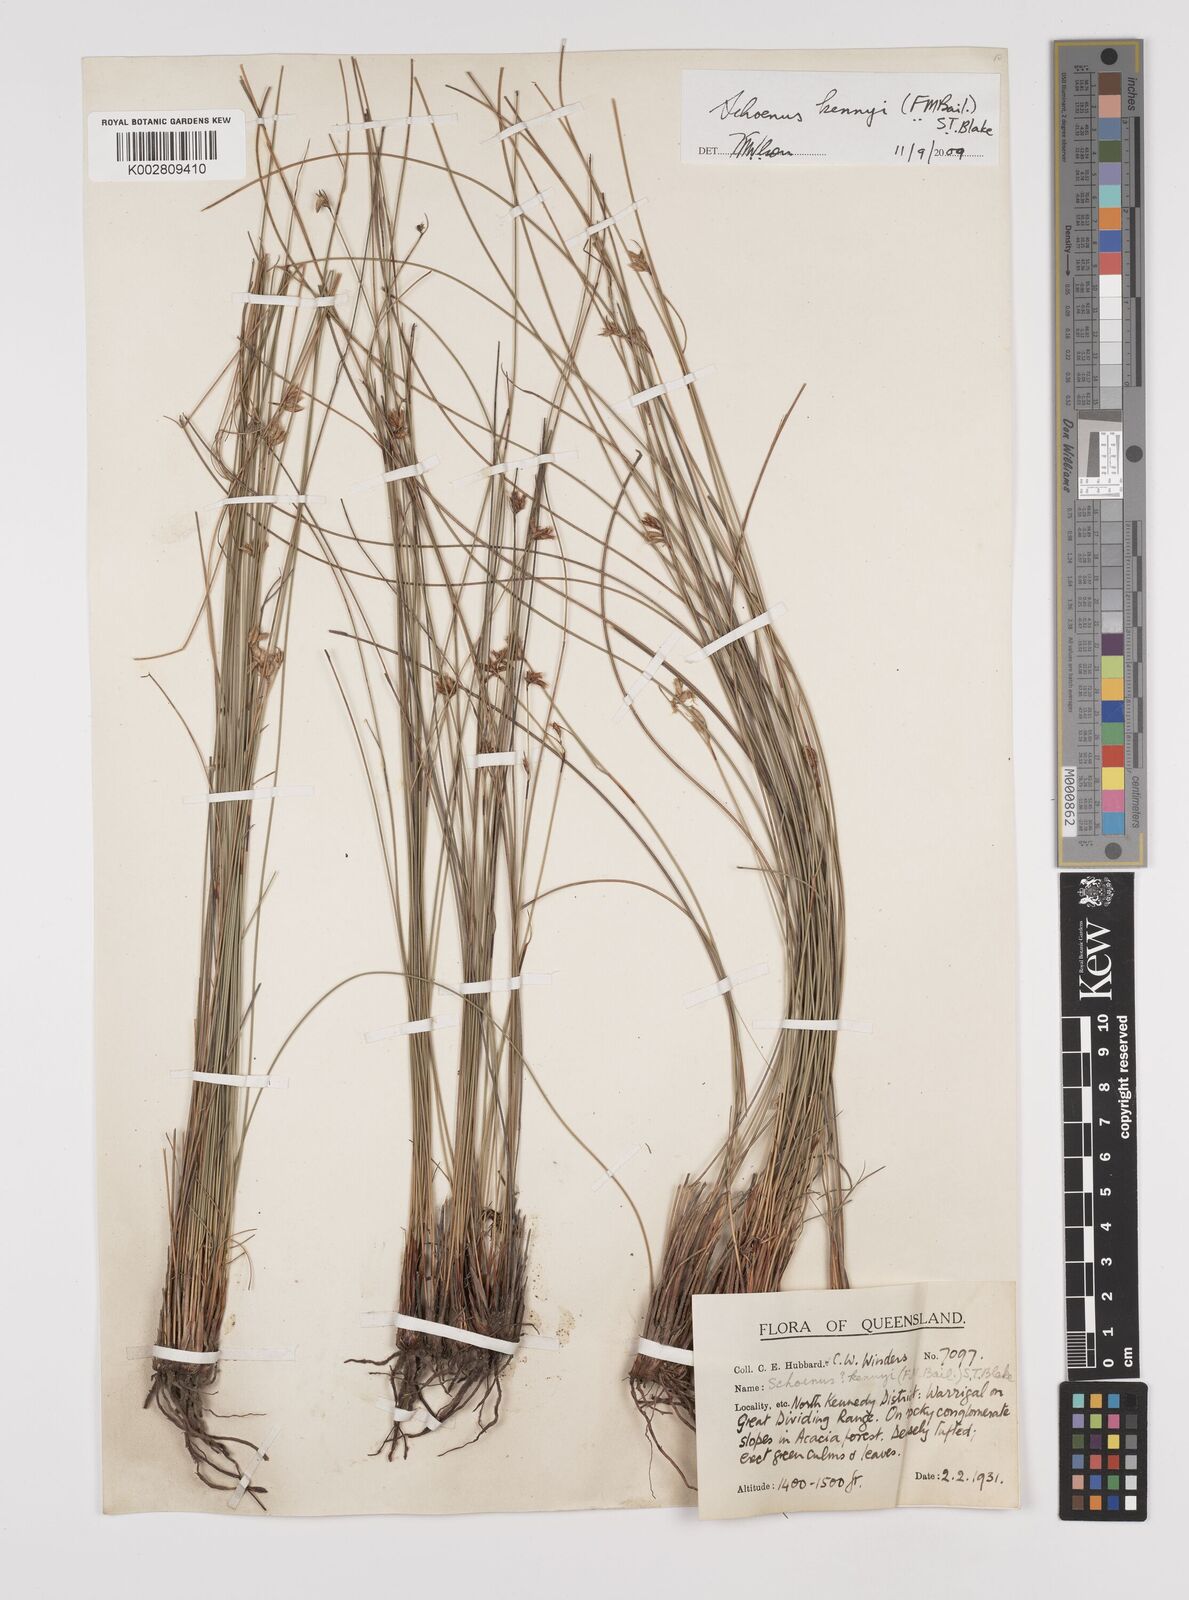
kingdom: Plantae
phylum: Tracheophyta
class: Liliopsida
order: Poales
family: Cyperaceae
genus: Schoenus
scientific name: Schoenus kennyi
